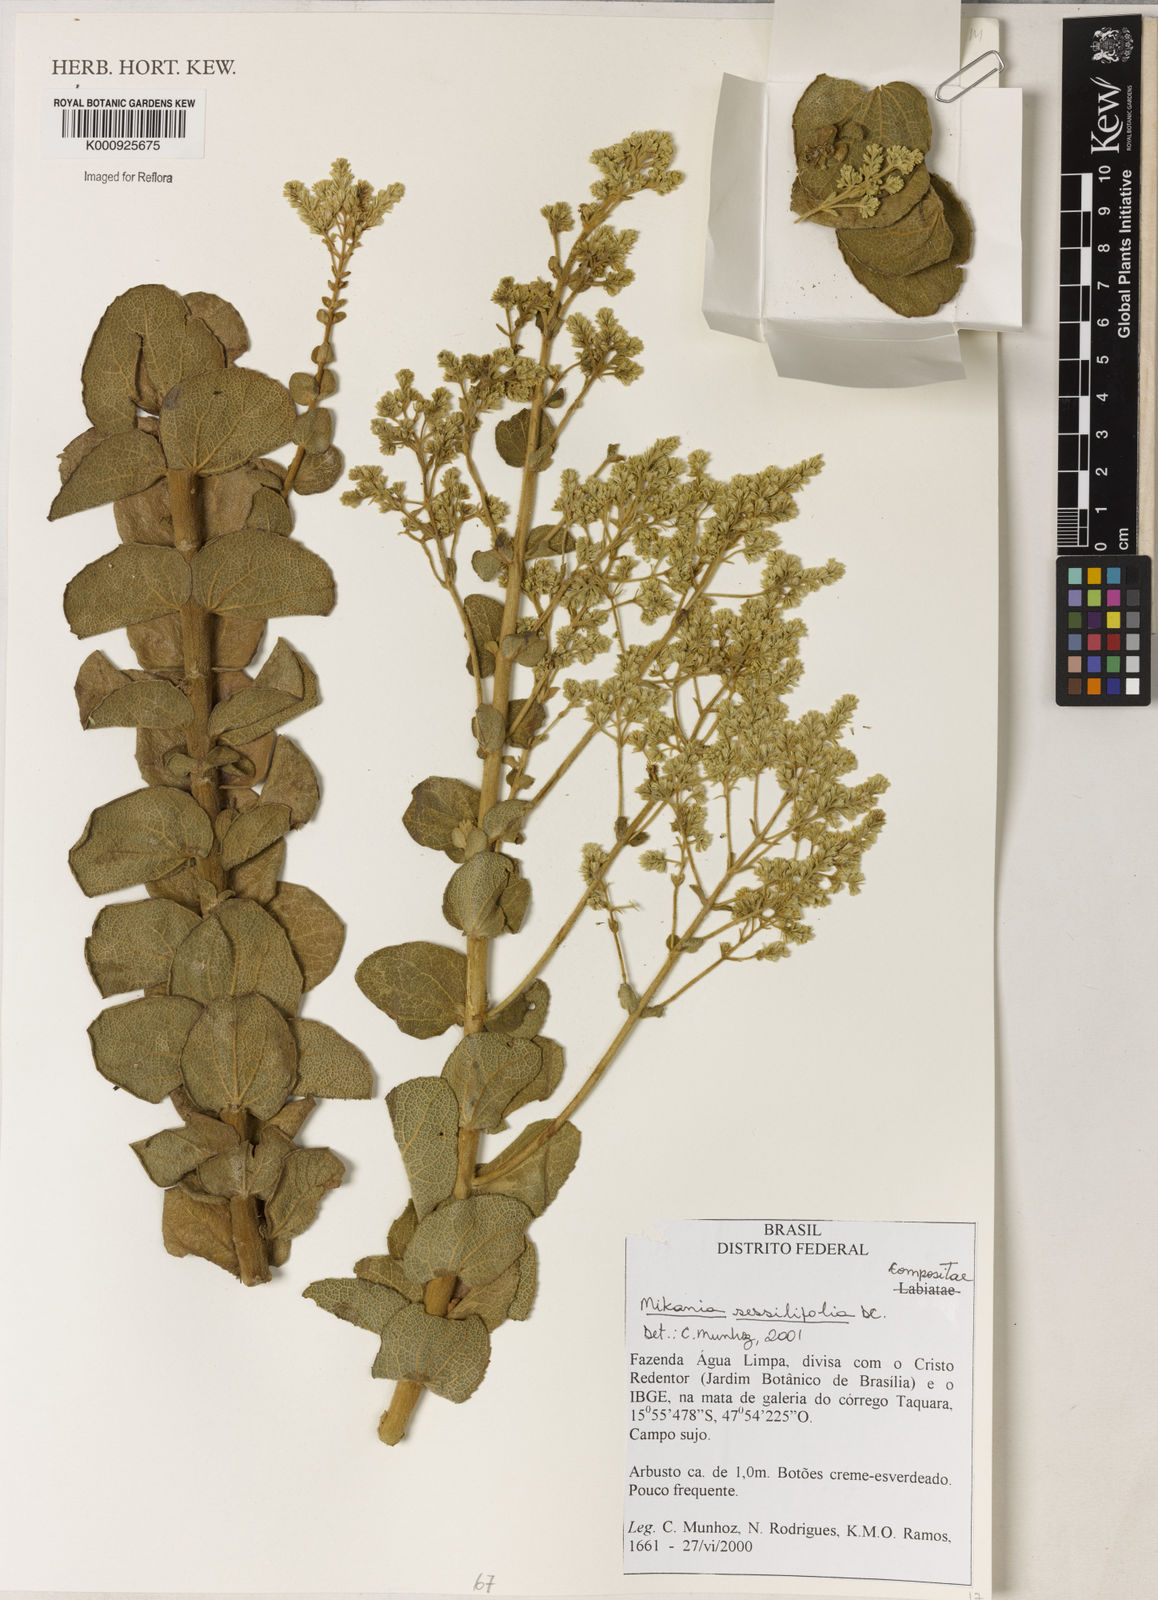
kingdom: Plantae
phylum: Tracheophyta
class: Magnoliopsida
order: Asterales
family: Asteraceae
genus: Mikania
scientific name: Mikania sessilifolia
